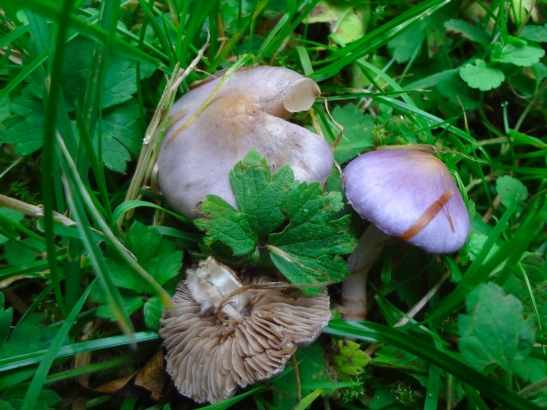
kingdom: Fungi
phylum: Basidiomycota
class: Agaricomycetes
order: Agaricales
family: Inocybaceae
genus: Inocybe
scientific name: Inocybe geophylla
